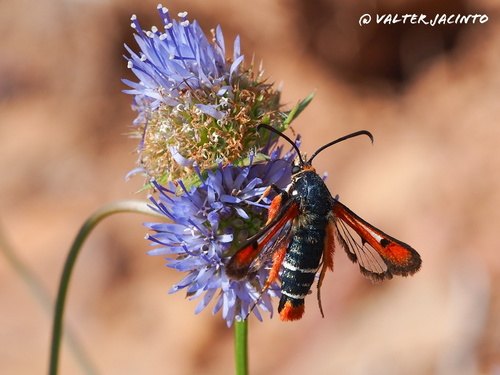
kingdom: Animalia
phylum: Arthropoda
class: Insecta
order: Lepidoptera
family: Sesiidae
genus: Pyropteron
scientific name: Pyropteron chrysidiforme
